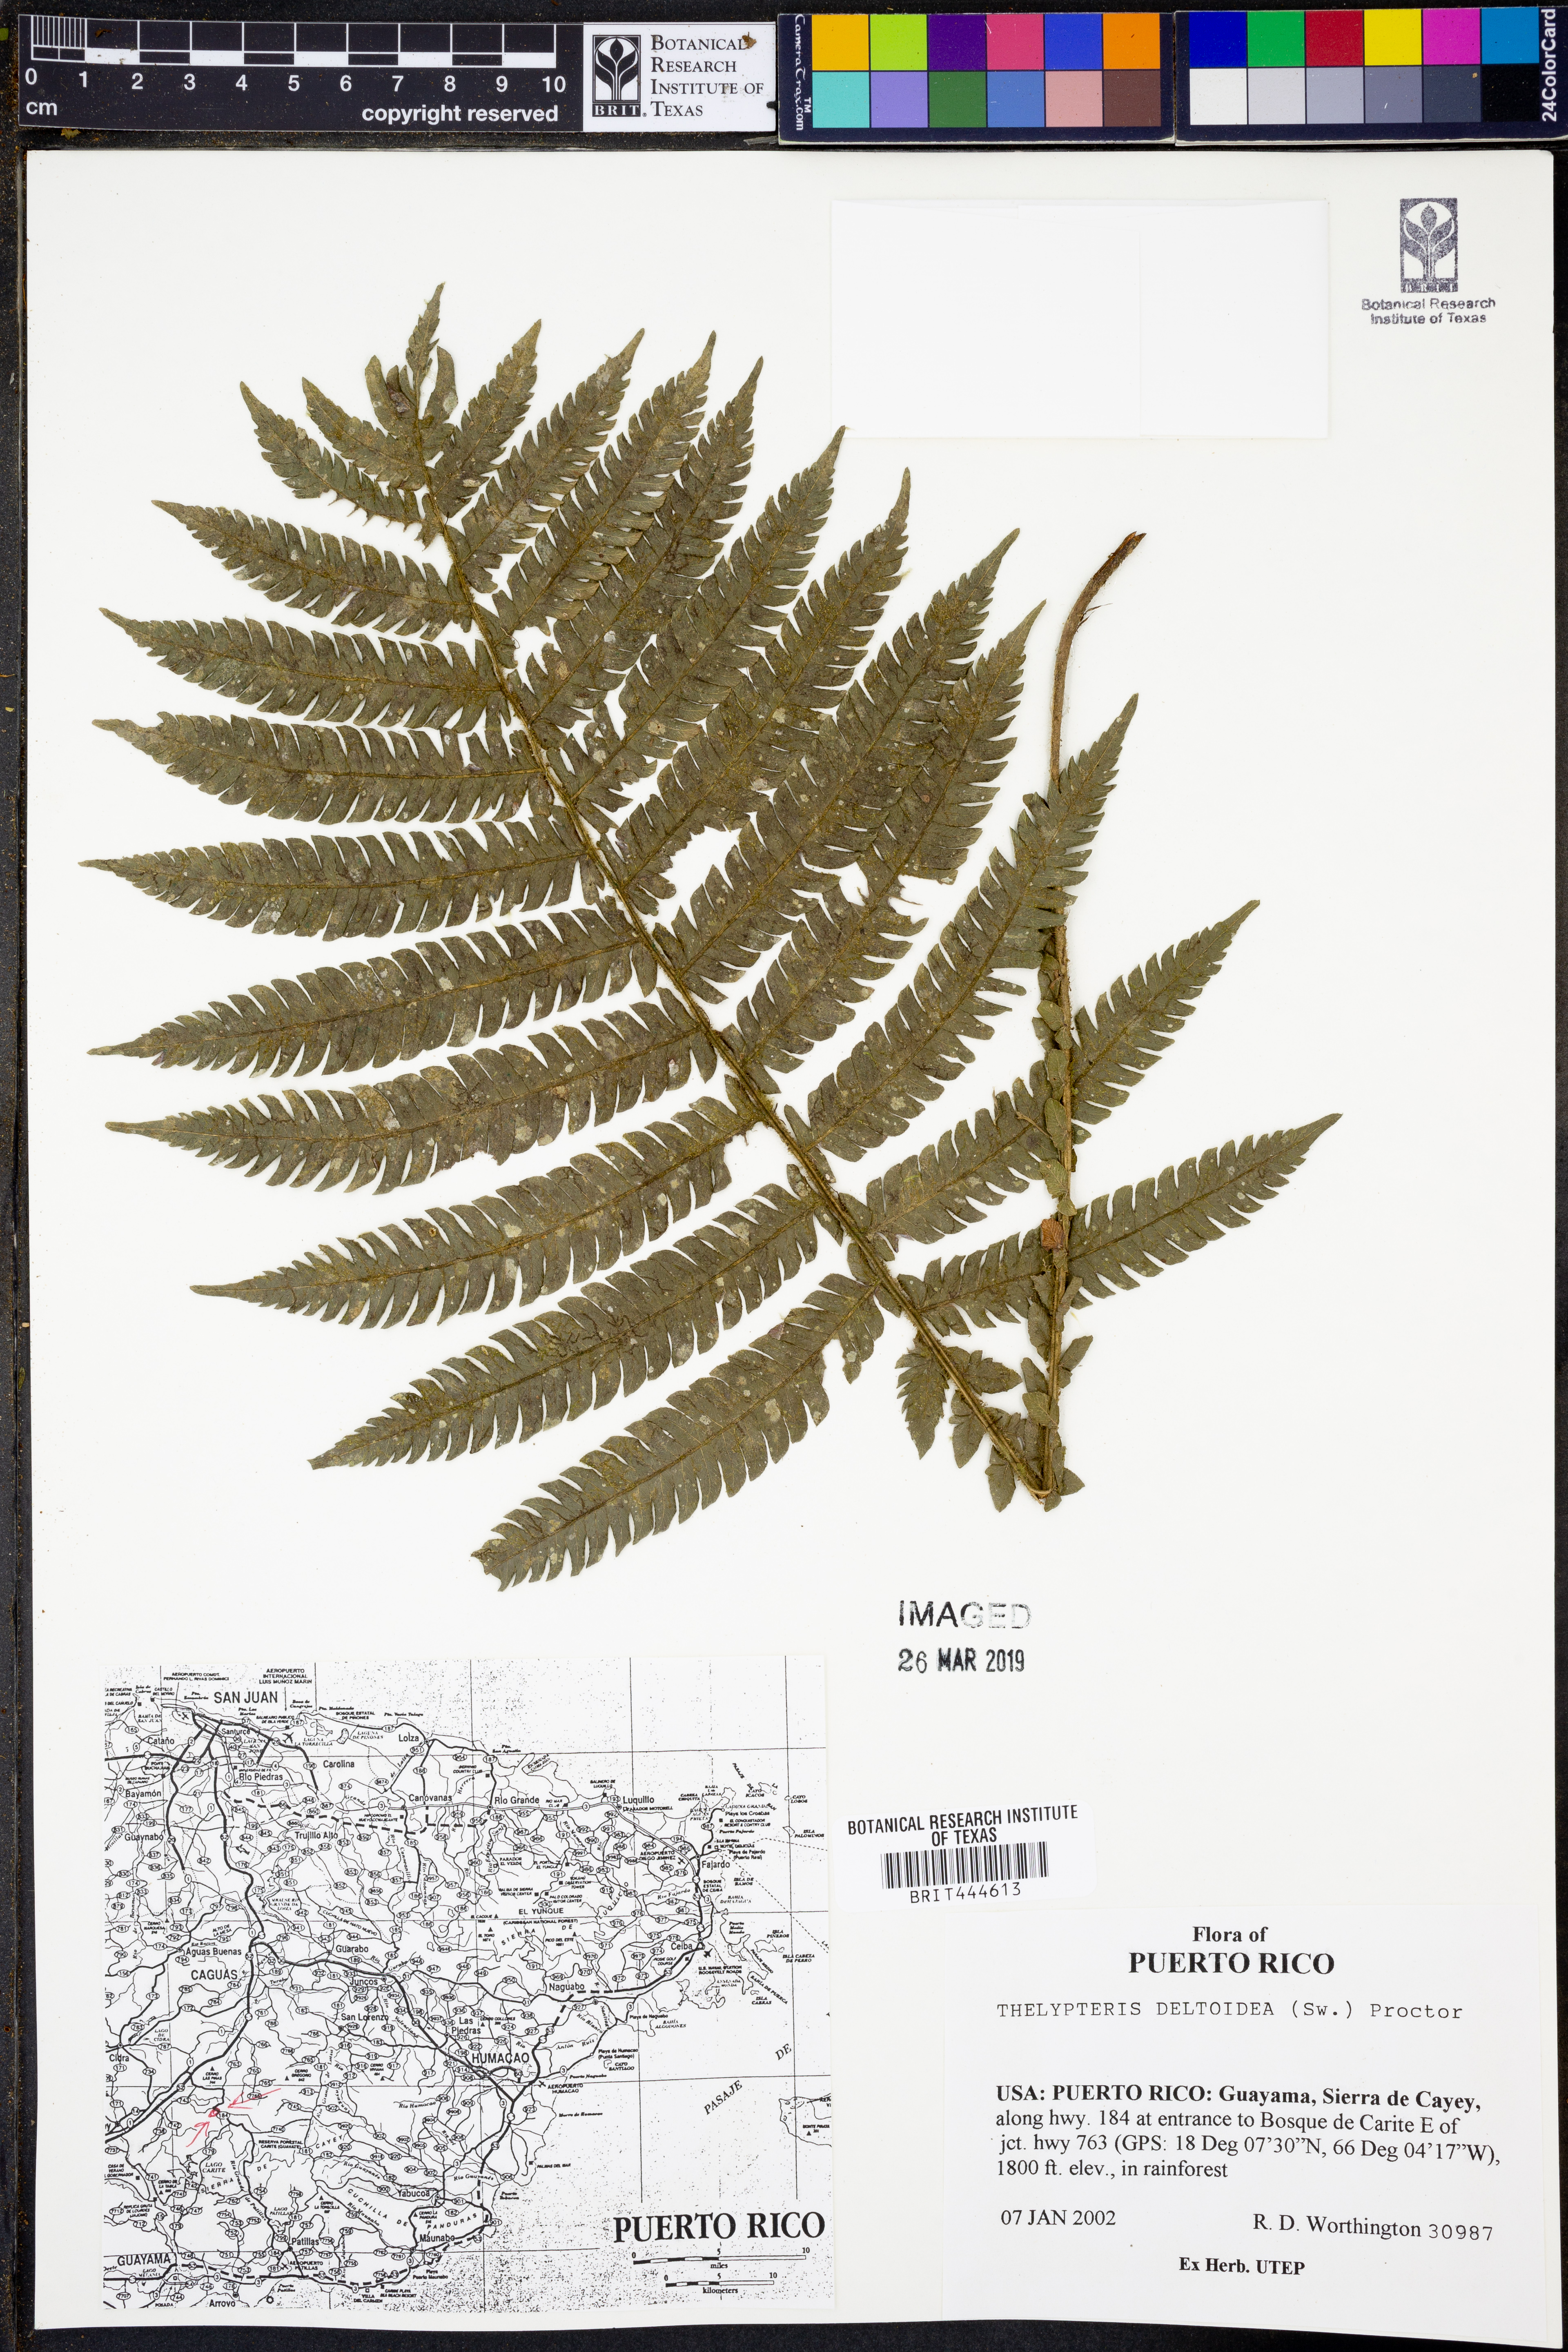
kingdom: Plantae
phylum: Tracheophyta
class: Polypodiopsida
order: Polypodiales
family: Thelypteridaceae
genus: Steiropteris
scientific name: Steiropteris deltoidea
